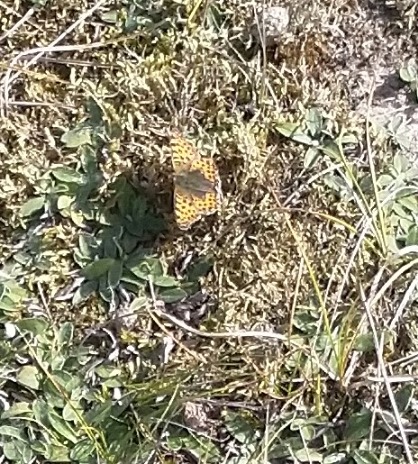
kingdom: Animalia
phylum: Arthropoda
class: Insecta
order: Lepidoptera
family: Nymphalidae
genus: Issoria
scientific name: Issoria lathonia
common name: Storplettet perlemorsommerfugl
